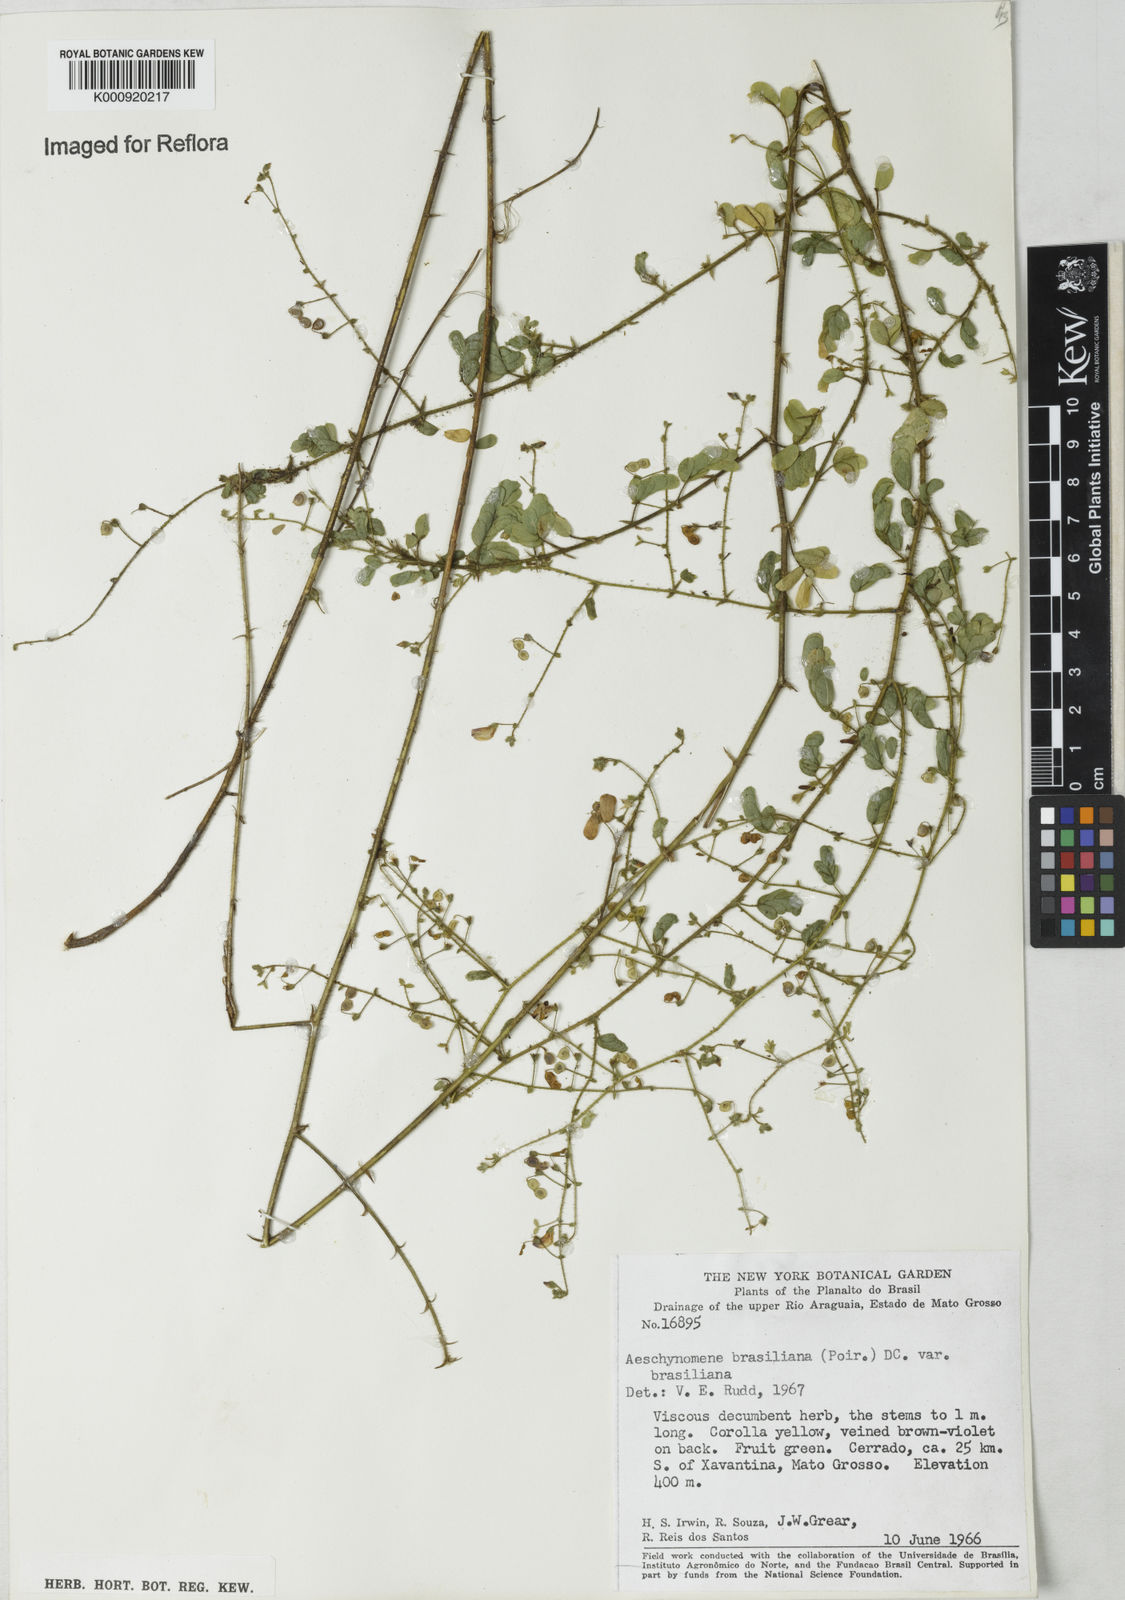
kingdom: Plantae
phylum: Tracheophyta
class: Magnoliopsida
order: Fabales
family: Fabaceae
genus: Ctenodon
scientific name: Ctenodon brasilianus
